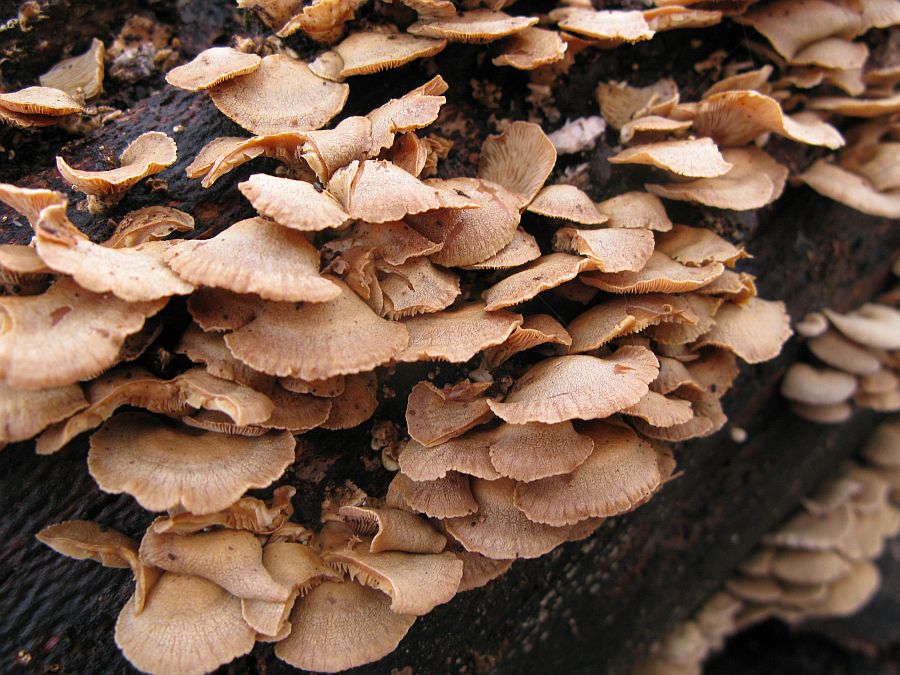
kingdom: Fungi
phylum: Basidiomycota
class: Agaricomycetes
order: Agaricales
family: Mycenaceae
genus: Panellus
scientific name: Panellus stipticus
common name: kliddet epaulethat
